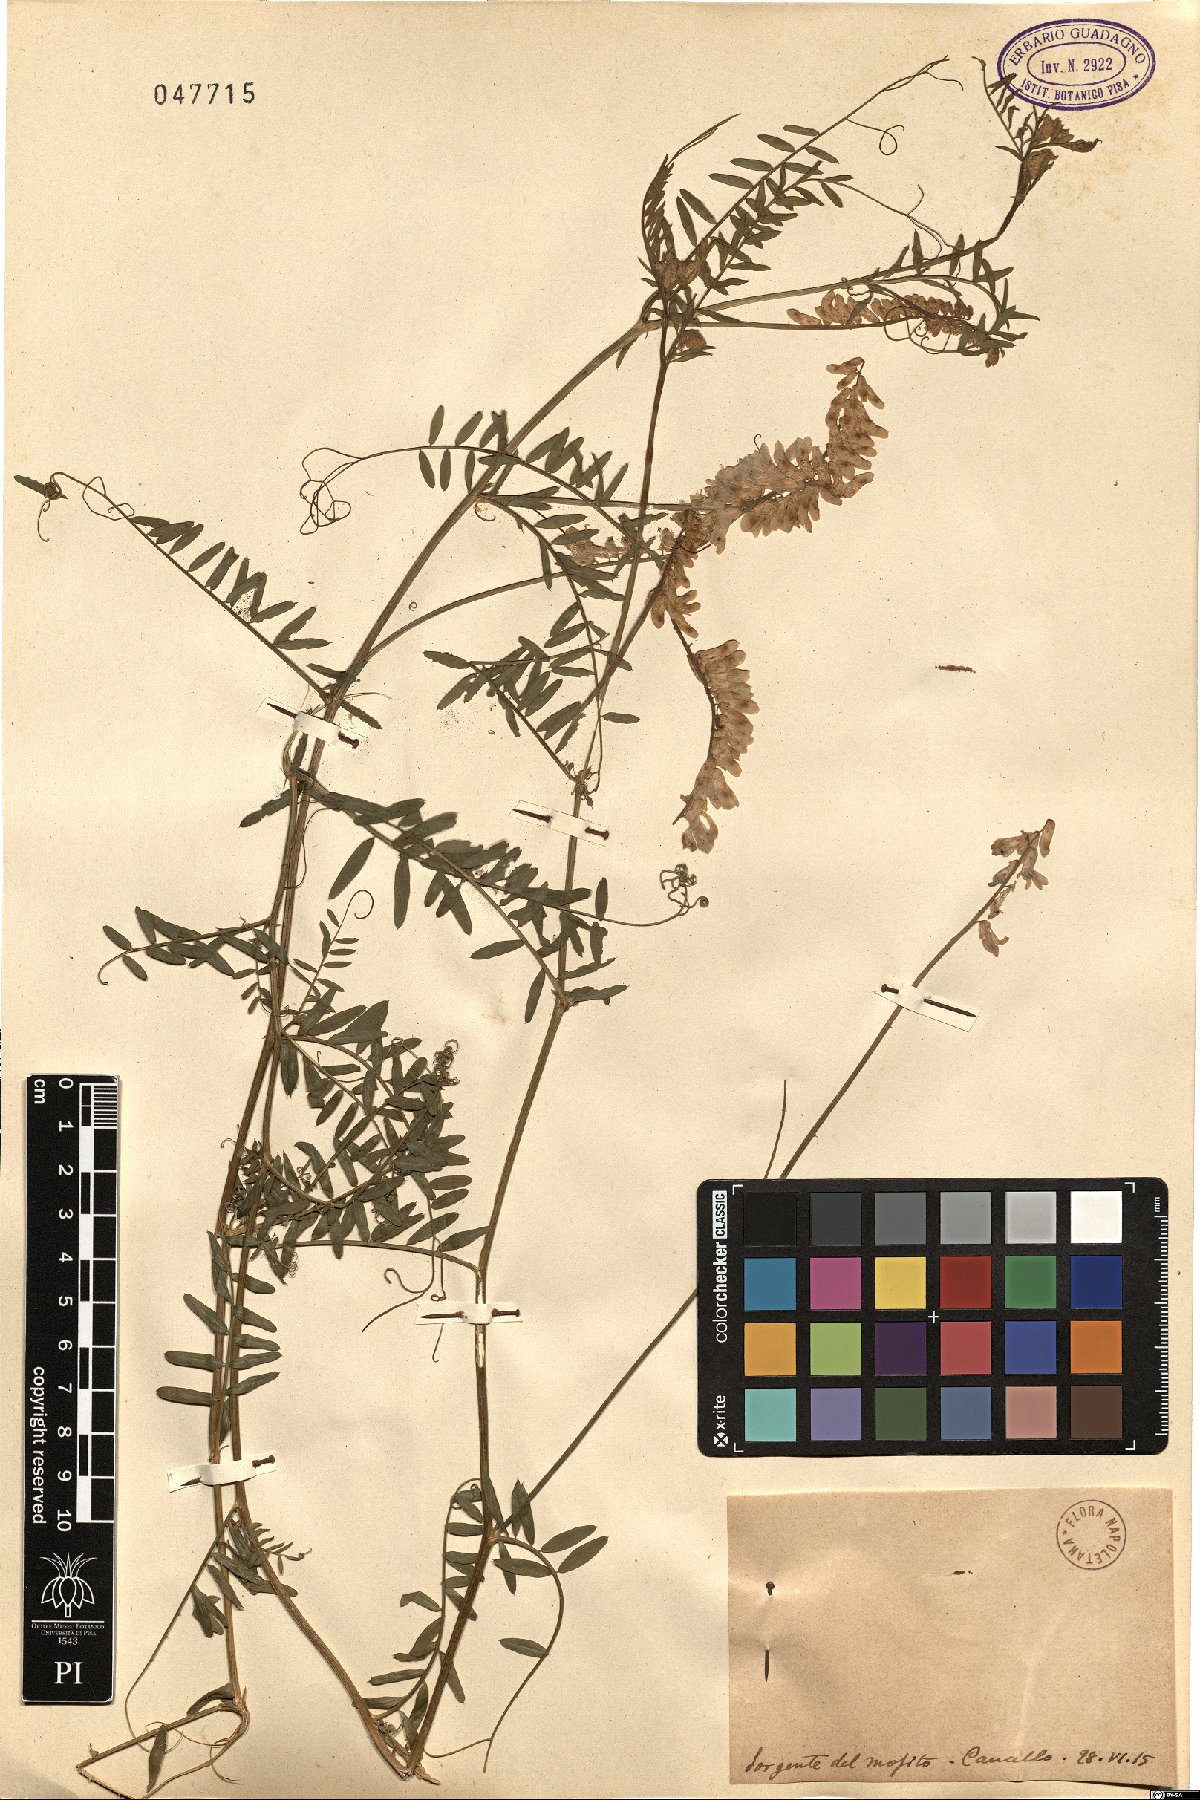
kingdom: Plantae
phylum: Tracheophyta
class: Magnoliopsida
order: Fabales
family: Fabaceae
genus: Vicia
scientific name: Vicia
